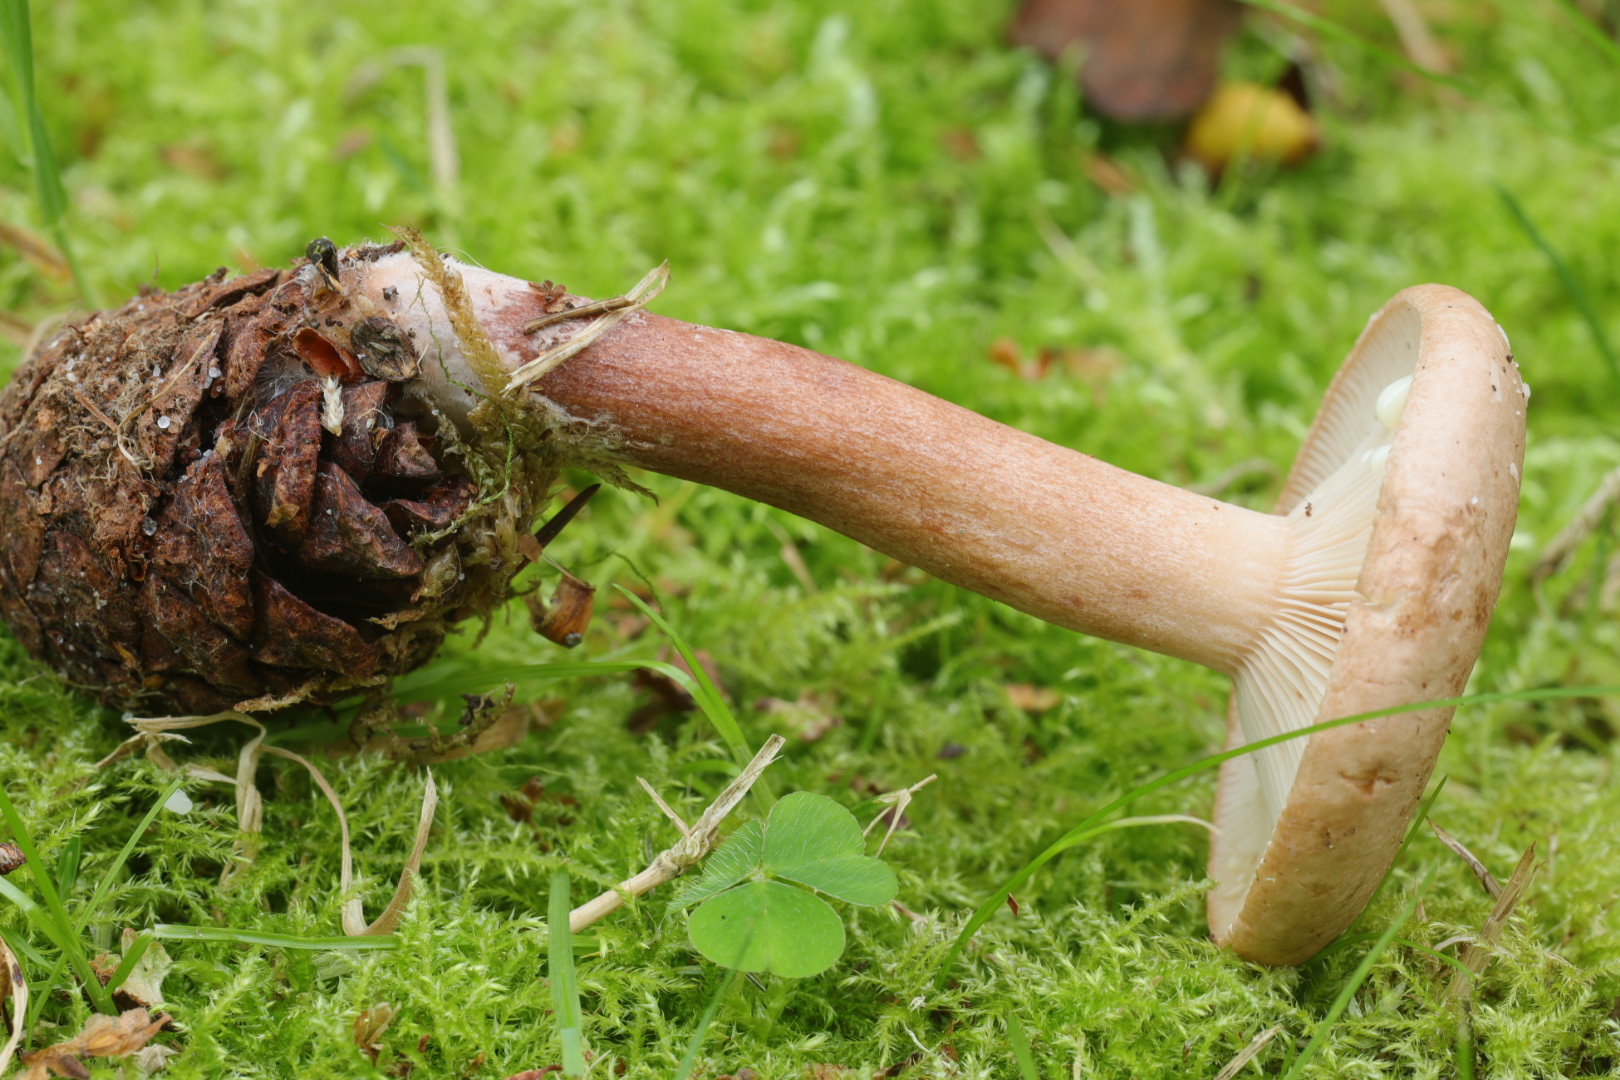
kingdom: Fungi
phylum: Basidiomycota
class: Agaricomycetes
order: Russulales
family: Russulaceae
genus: Lactarius
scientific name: Lactarius quietus
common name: ege-mælkehat
